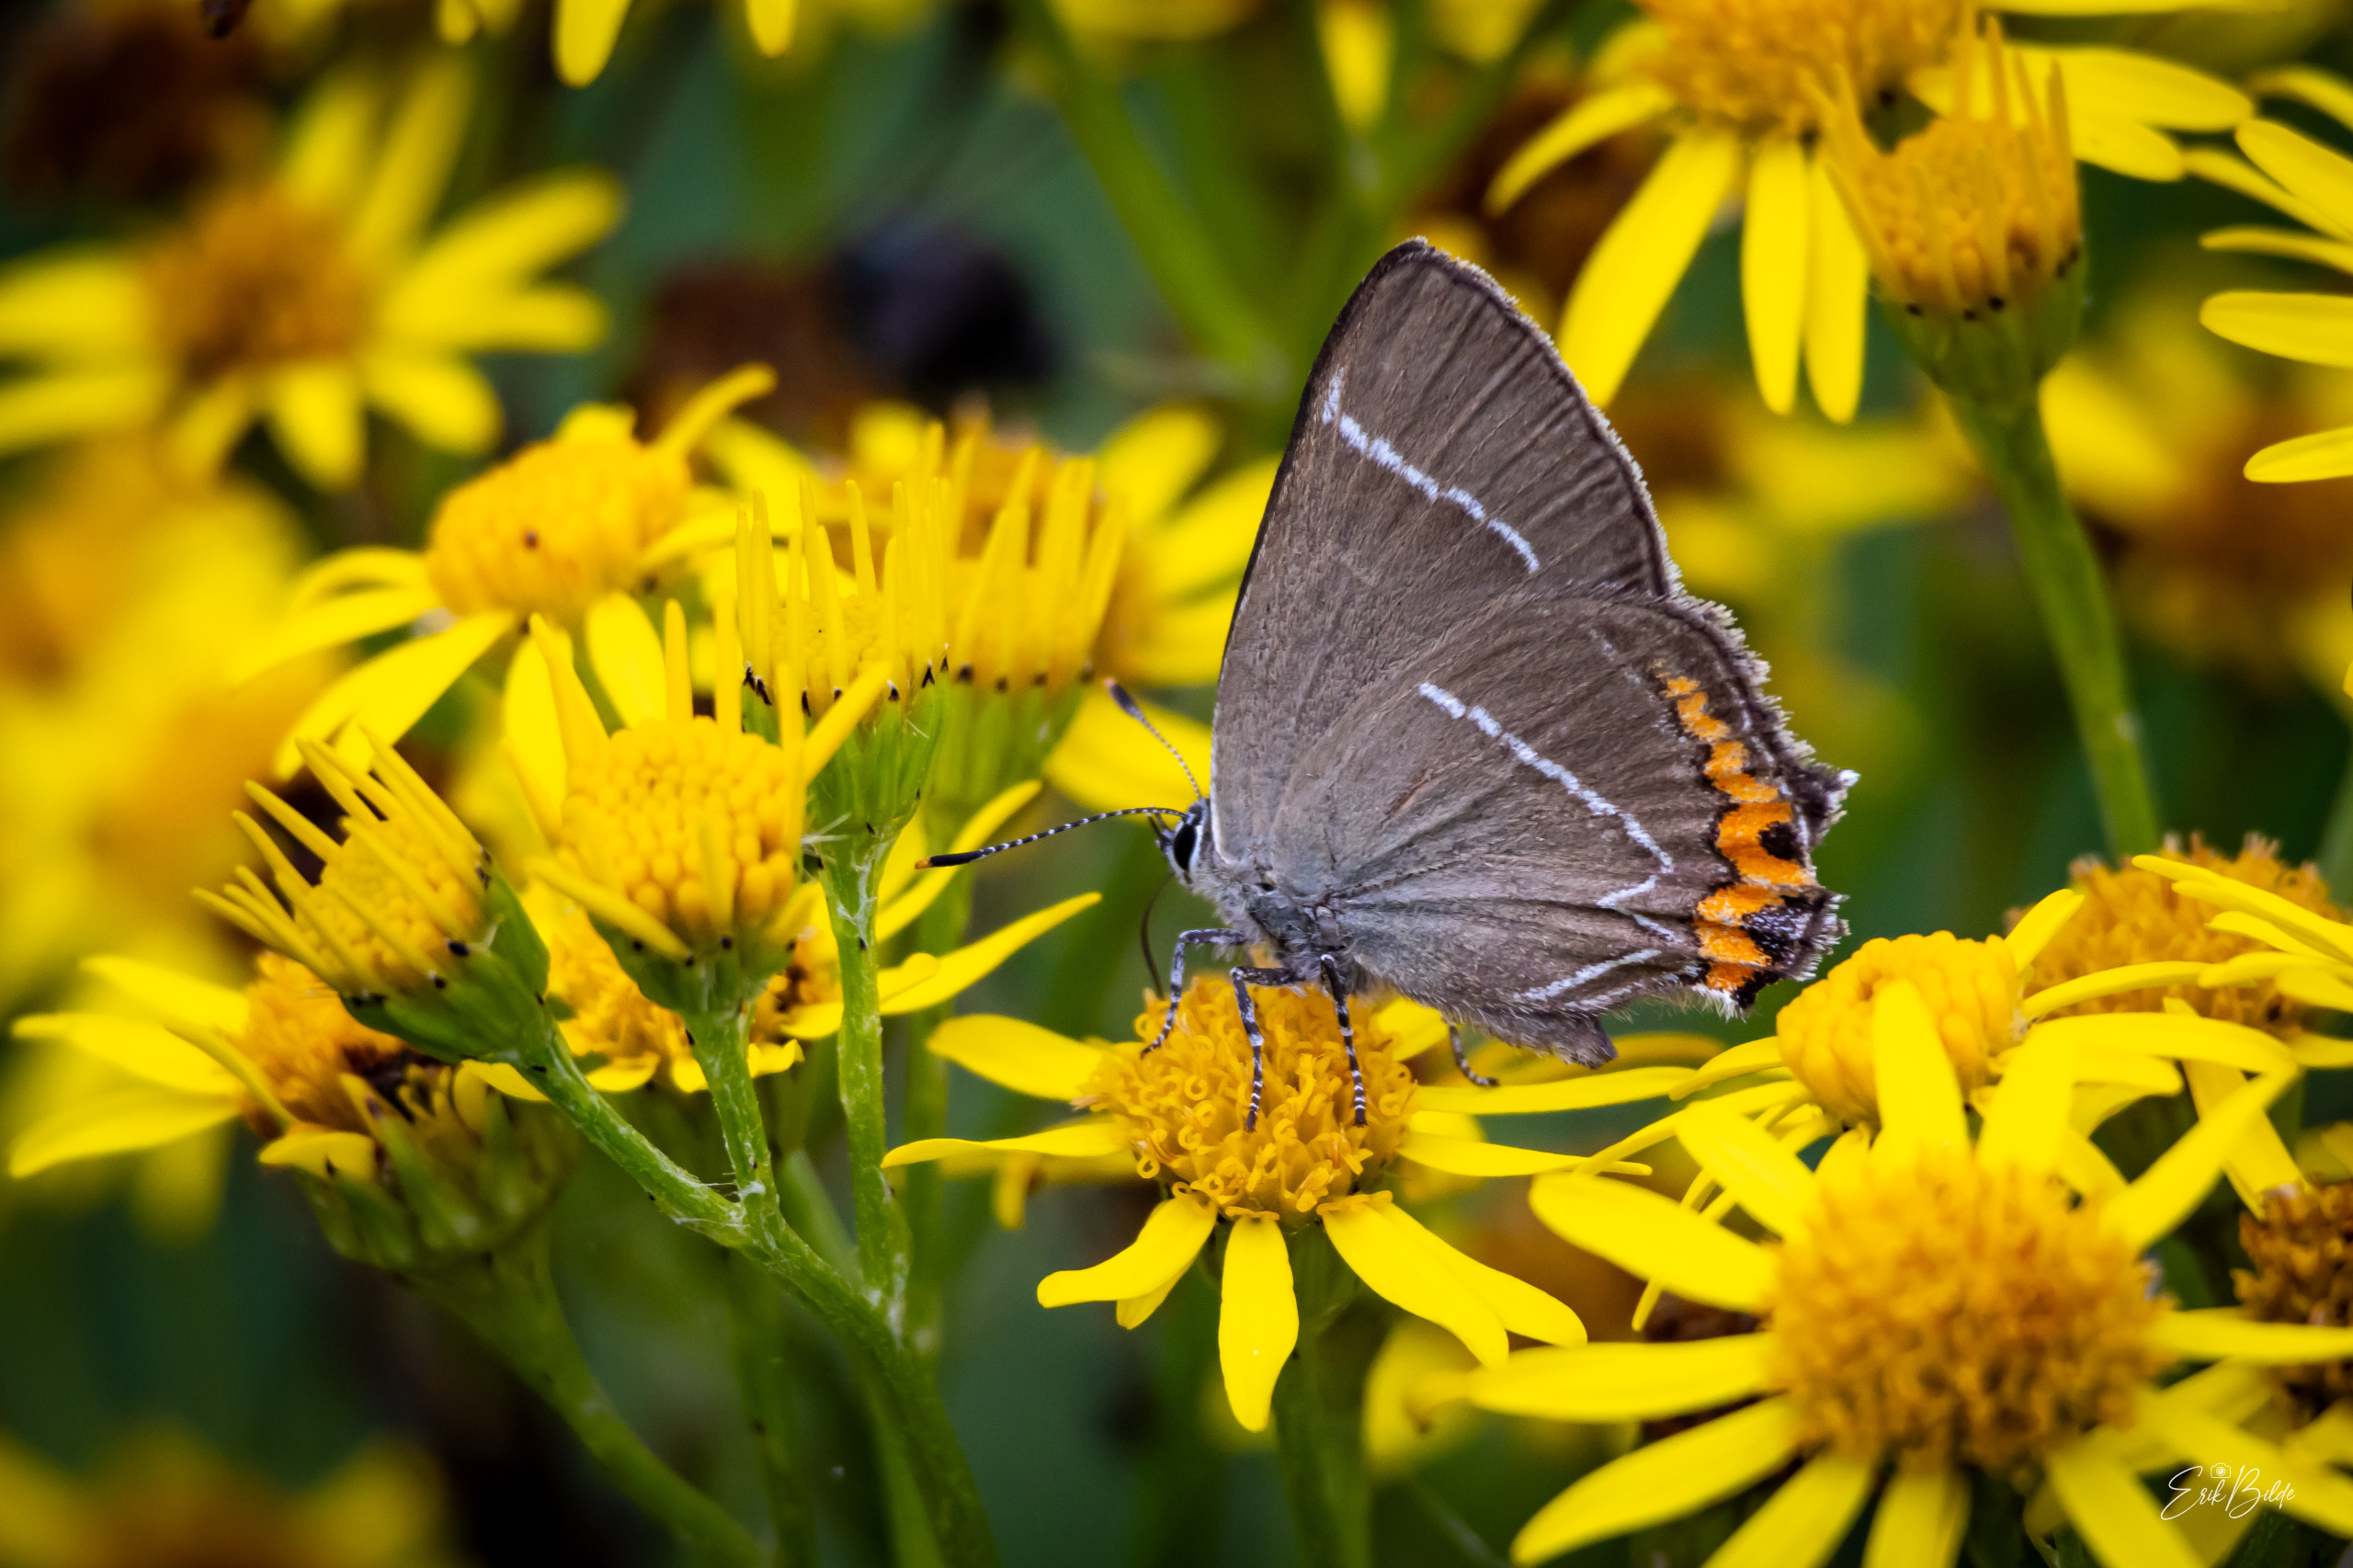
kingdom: Animalia
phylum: Arthropoda
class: Insecta
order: Lepidoptera
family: Lycaenidae
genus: Satyrium
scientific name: Satyrium w-album
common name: Det hvide W
